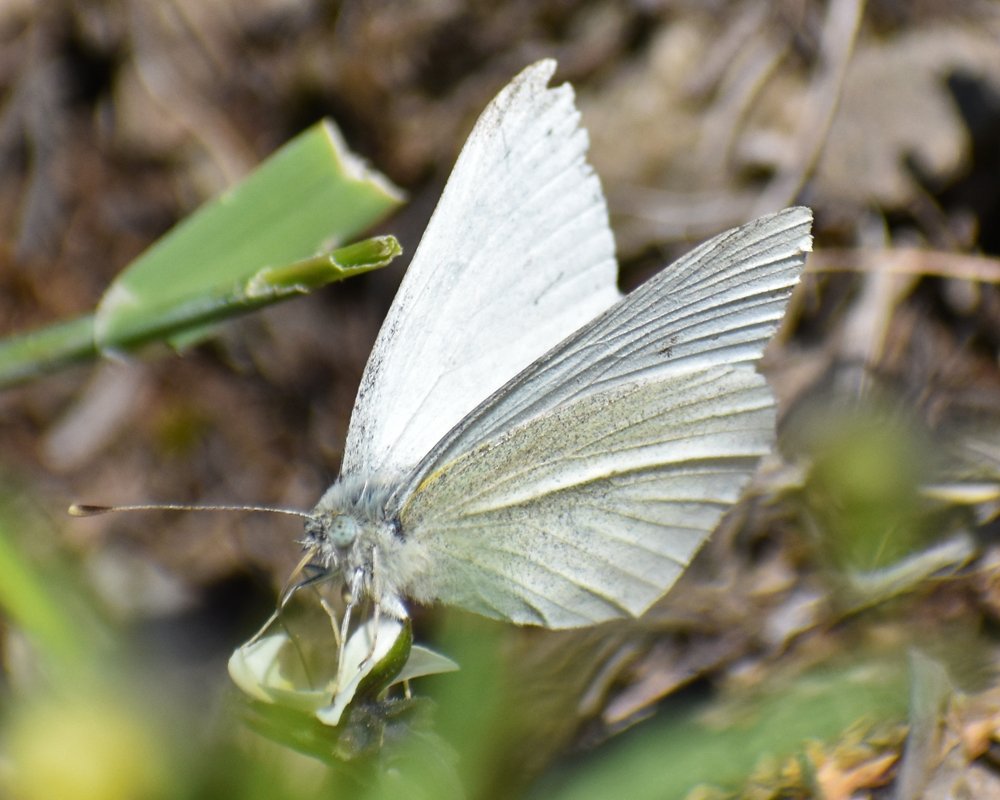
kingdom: Animalia
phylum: Arthropoda
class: Insecta
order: Lepidoptera
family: Pieridae
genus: Pieris
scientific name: Pieris marginalis
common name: Margined White
